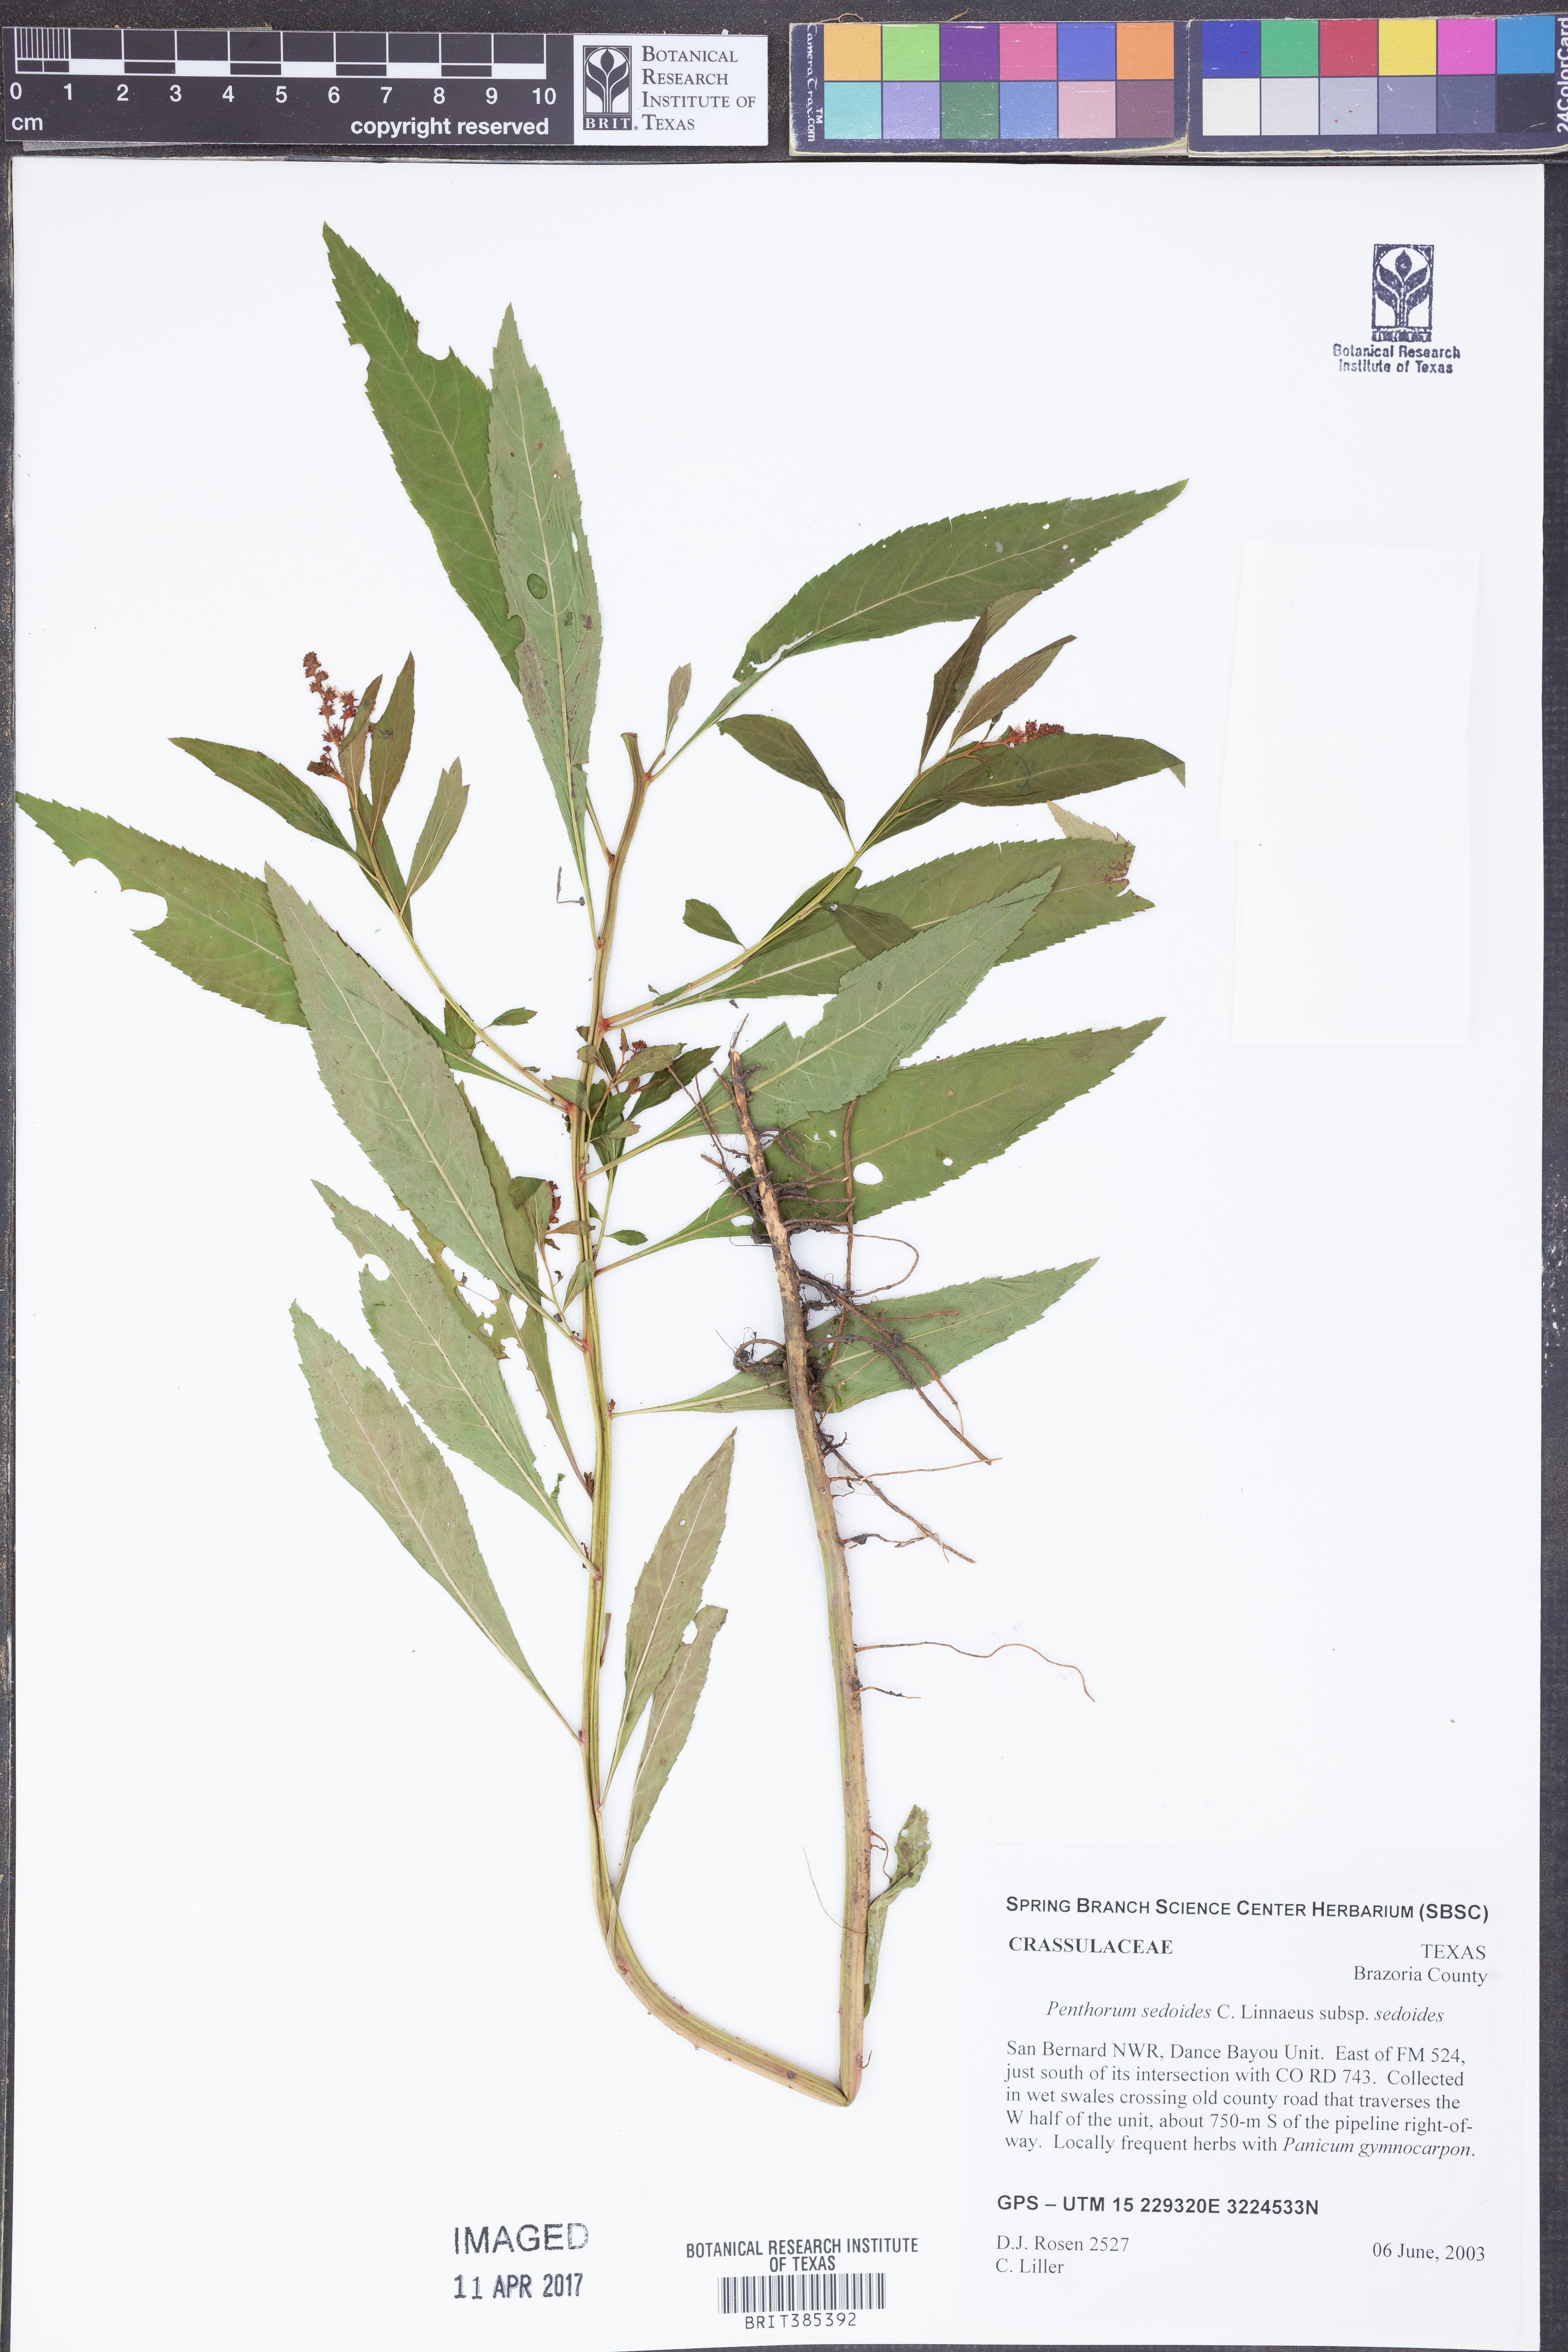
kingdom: Plantae
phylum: Tracheophyta
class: Magnoliopsida
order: Saxifragales
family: Penthoraceae
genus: Penthorum
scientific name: Penthorum sedoides
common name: Ditch stonecrop
